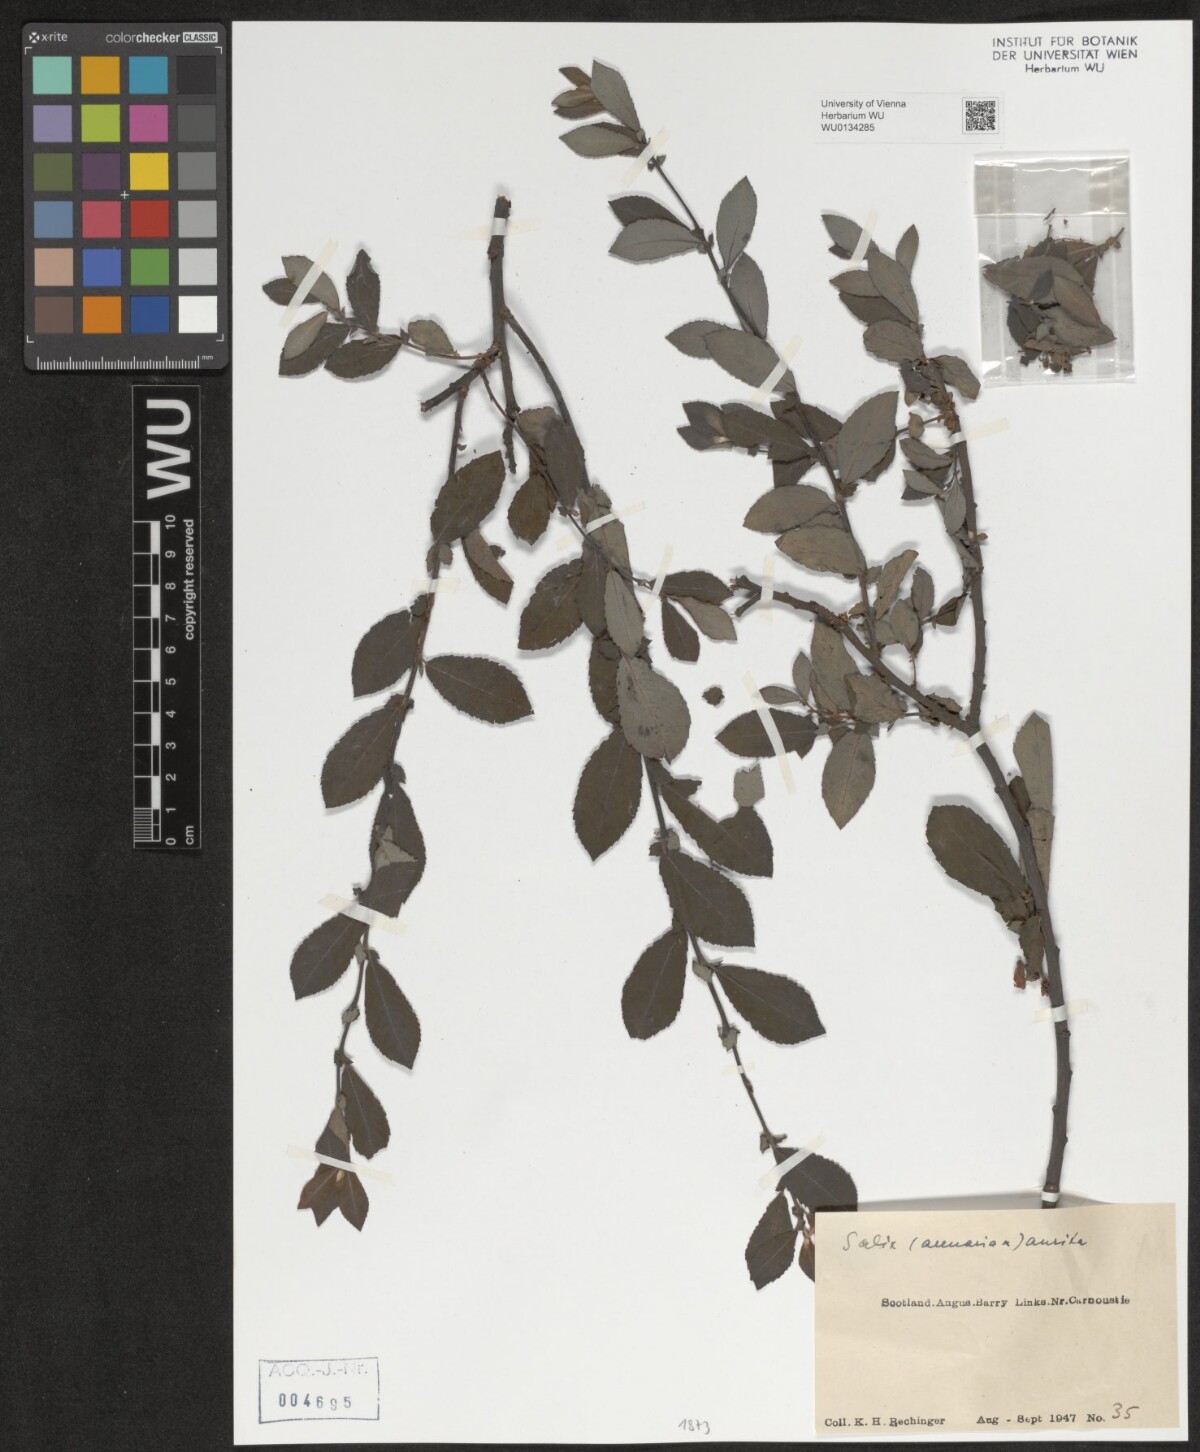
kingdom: Plantae
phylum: Tracheophyta
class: Magnoliopsida
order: Malpighiales
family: Salicaceae
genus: Salix
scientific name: Salix aurita
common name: Eared willow
